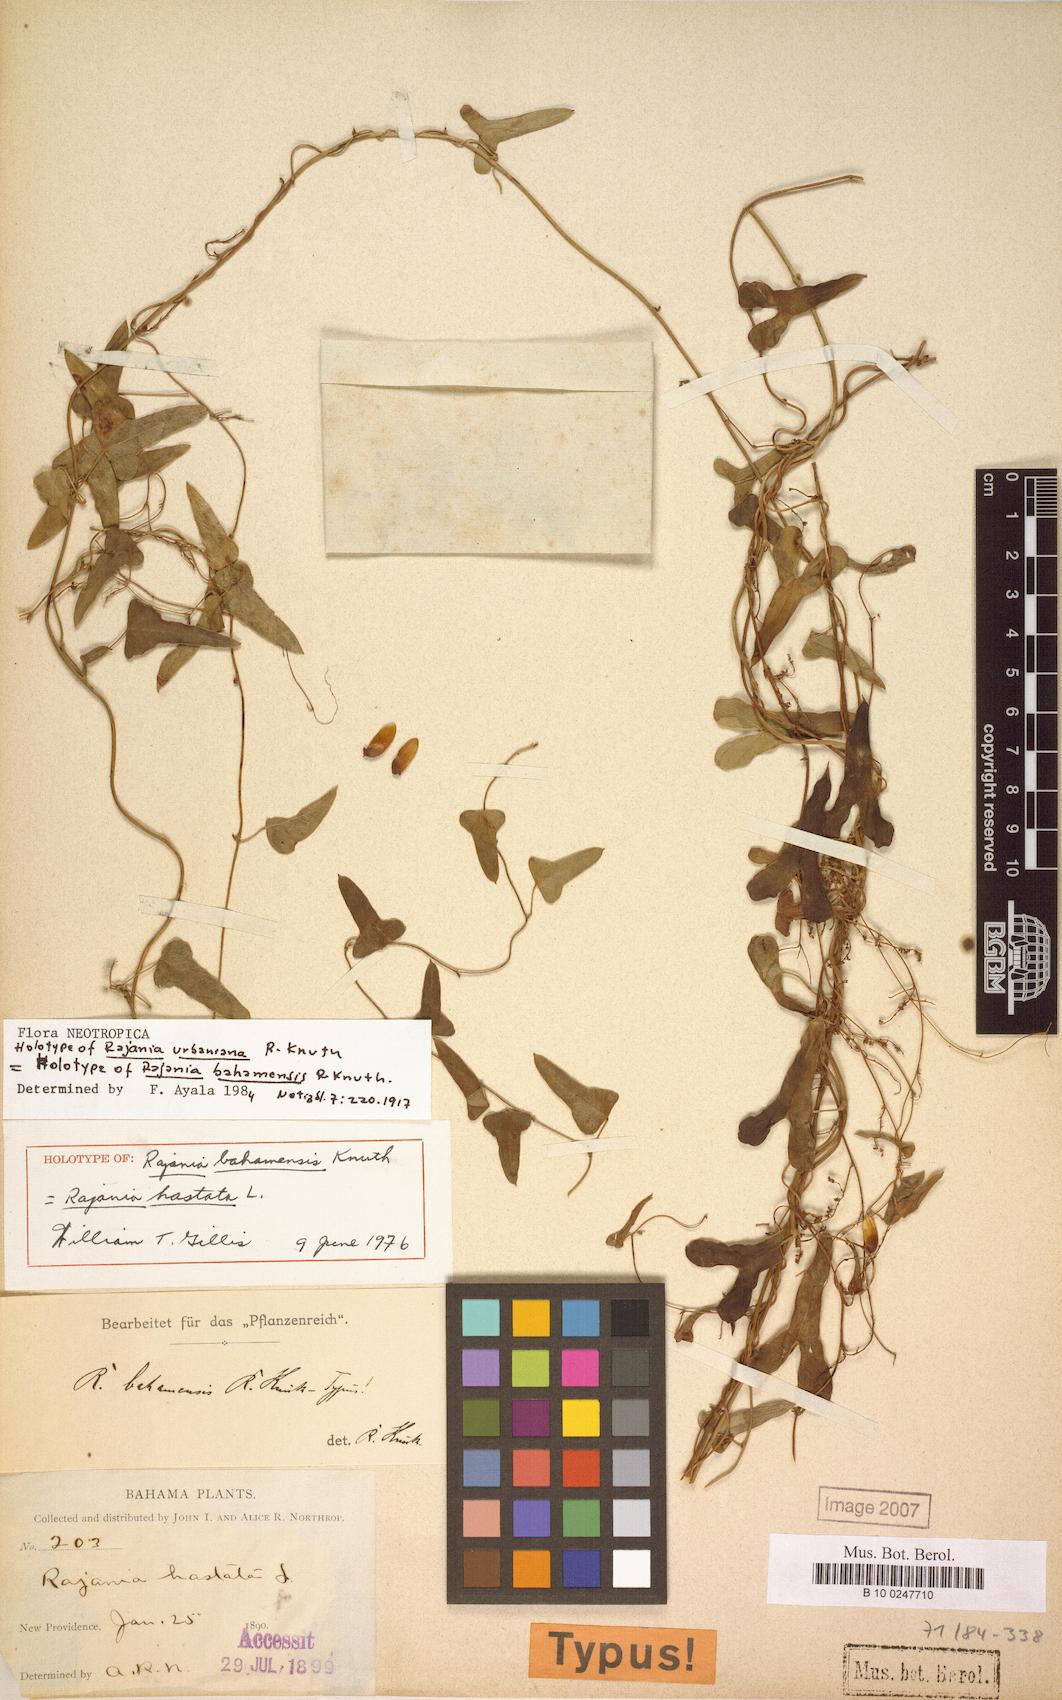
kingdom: Plantae
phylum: Tracheophyta
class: Liliopsida
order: Dioscoreales
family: Dioscoreaceae
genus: Dioscorea
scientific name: Dioscorea alainii
